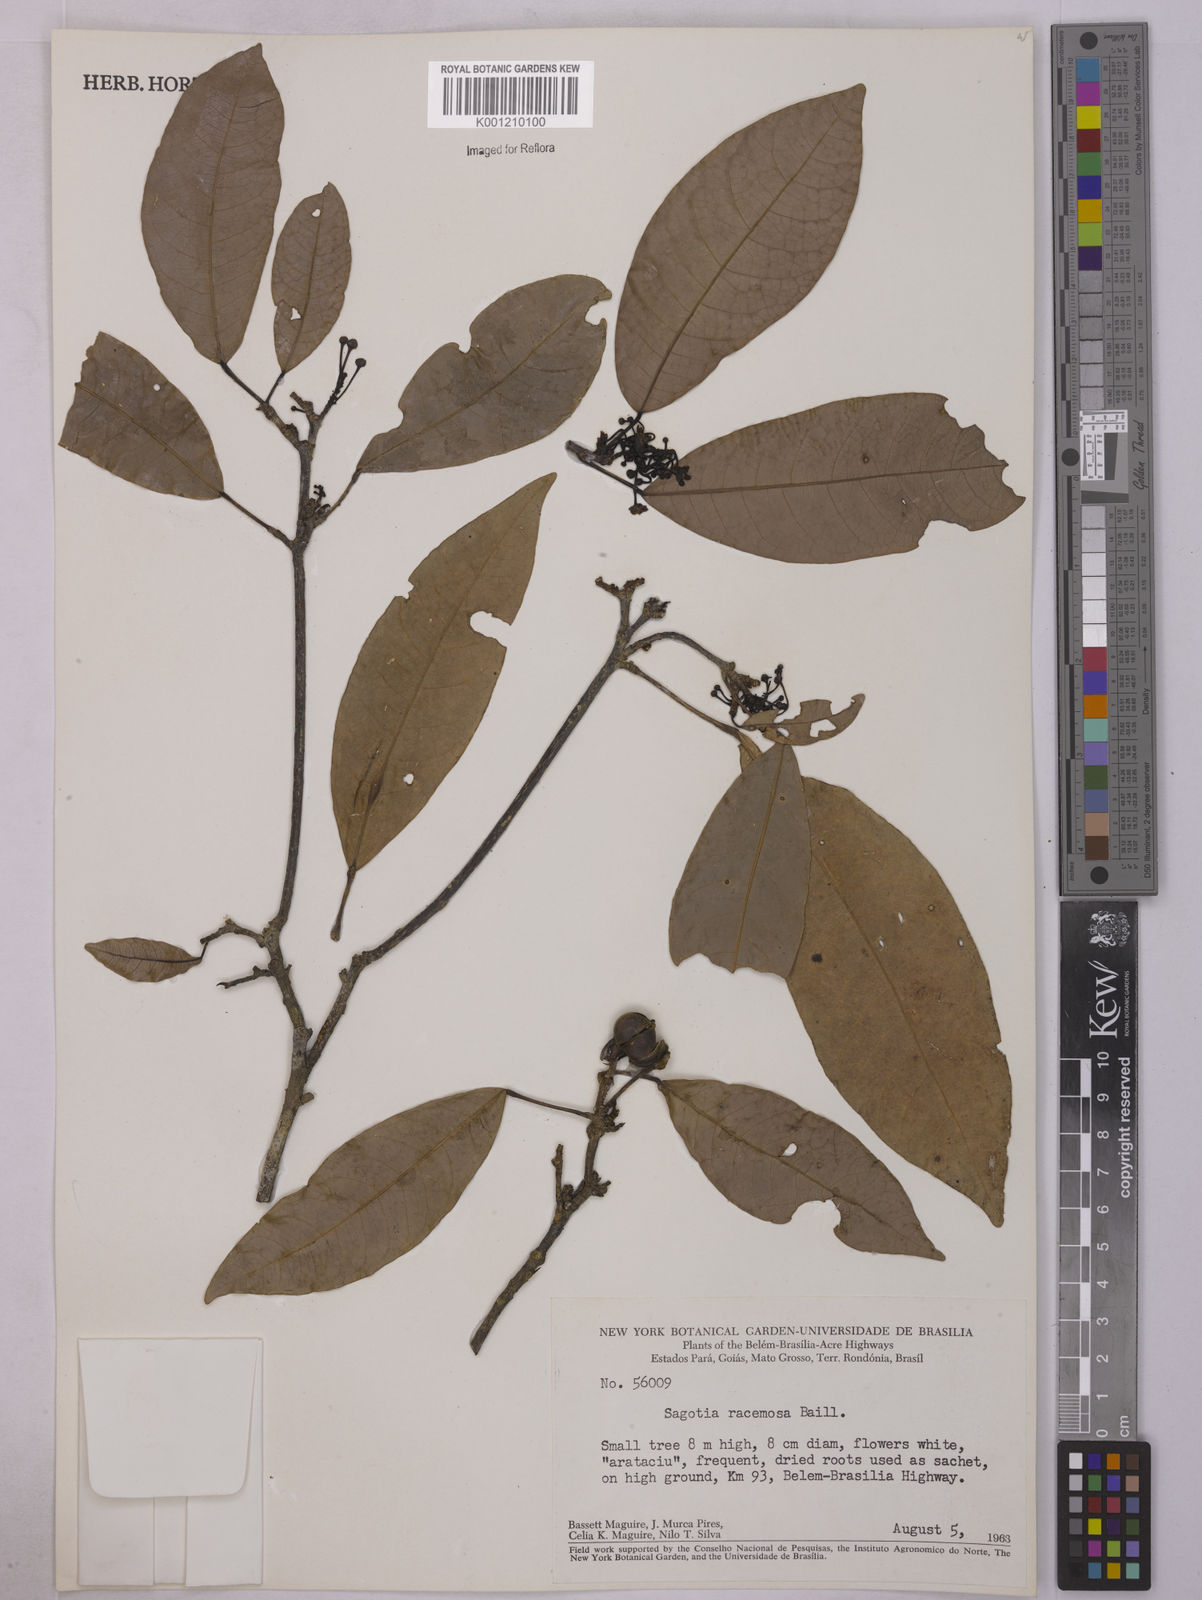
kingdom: Plantae
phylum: Tracheophyta
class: Magnoliopsida
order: Malpighiales
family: Euphorbiaceae
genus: Sagotia
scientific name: Sagotia racemosa
